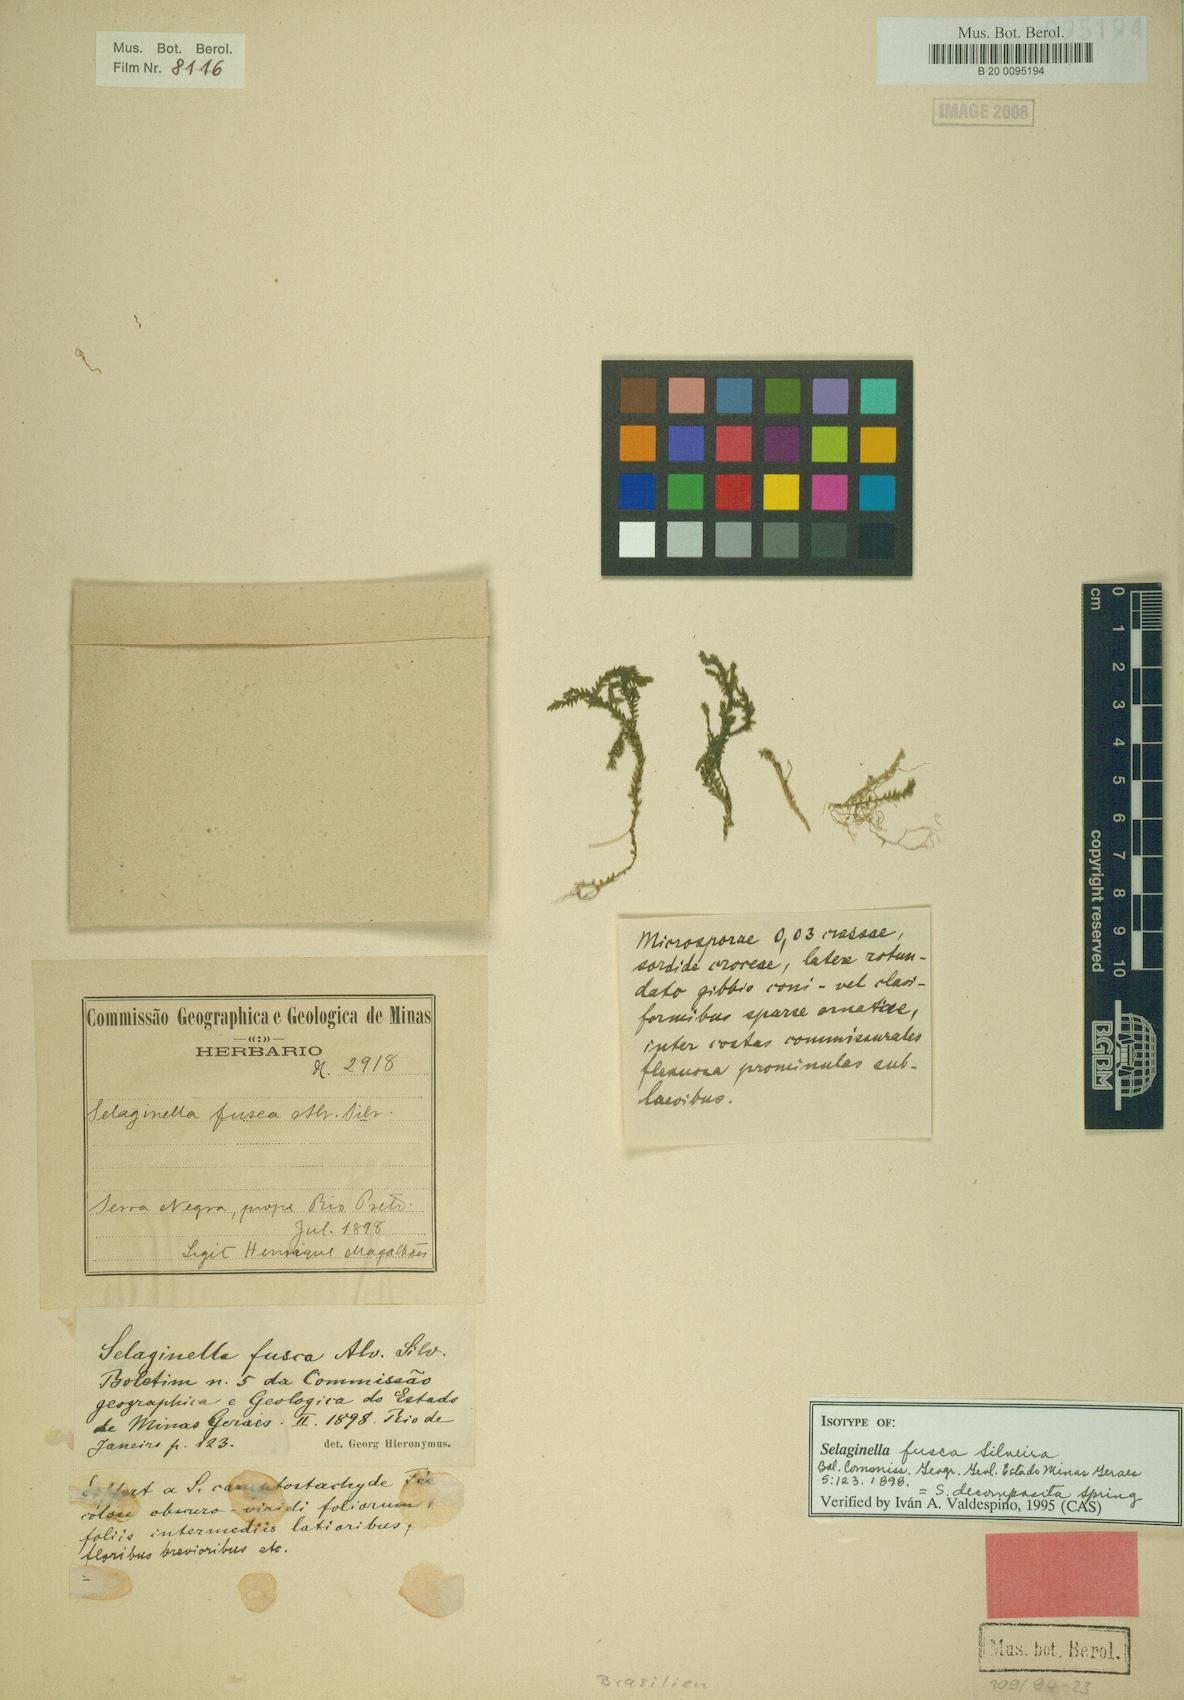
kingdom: Plantae
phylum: Tracheophyta
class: Lycopodiopsida
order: Selaginellales
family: Selaginellaceae
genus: Selaginella
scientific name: Selaginella decomposita
